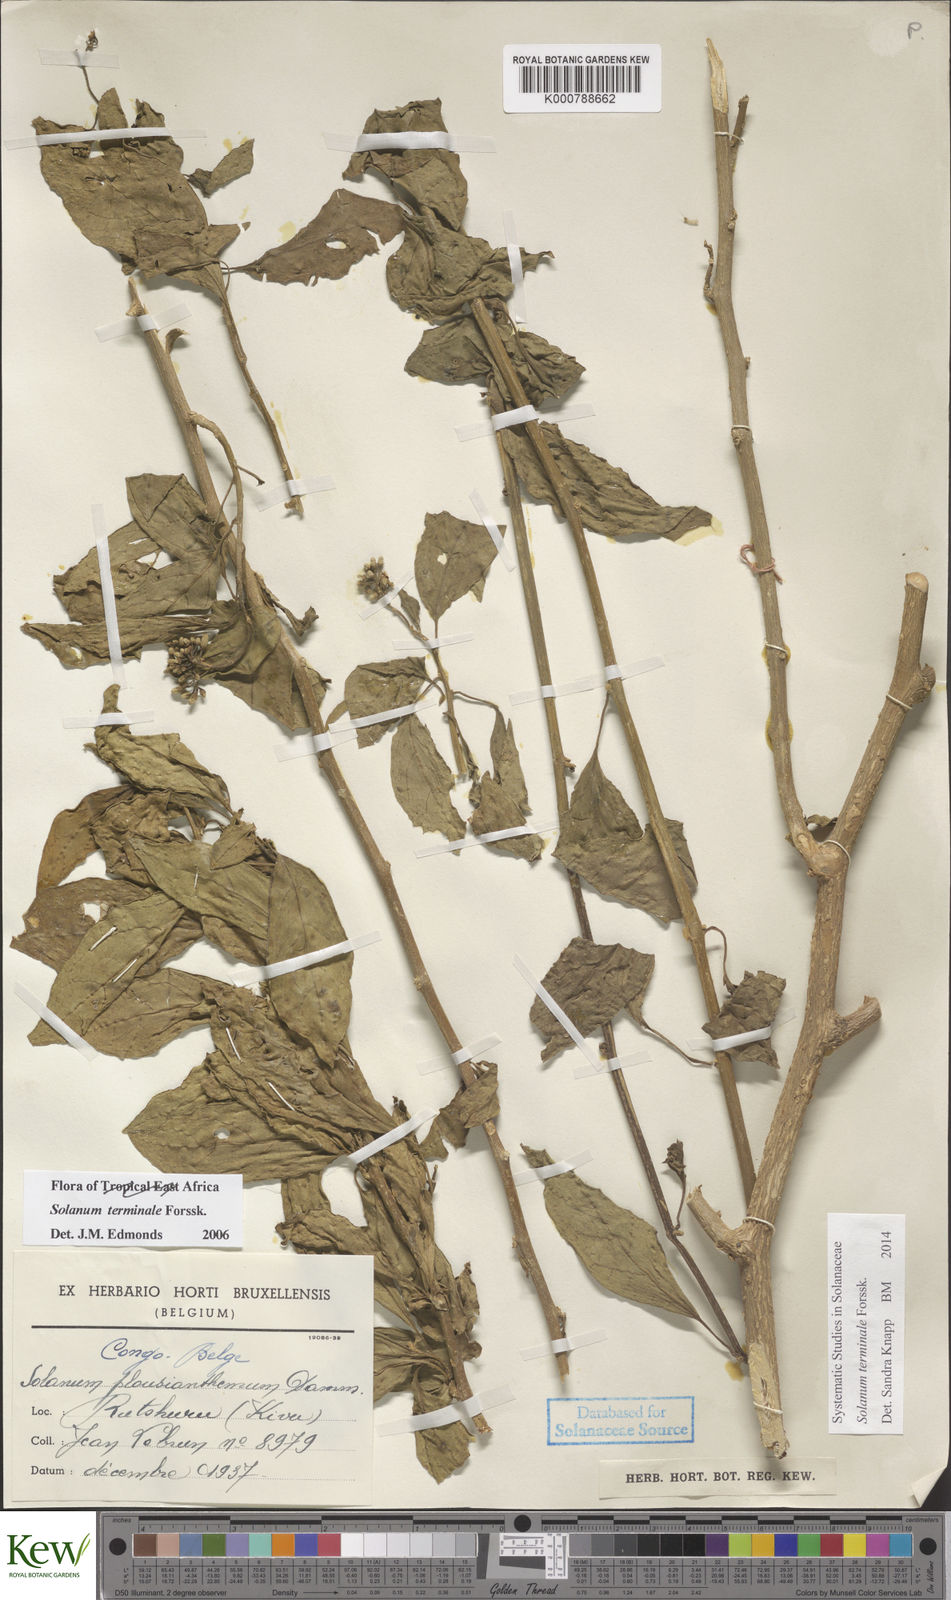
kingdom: Plantae
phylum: Tracheophyta
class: Magnoliopsida
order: Solanales
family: Solanaceae
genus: Solanum
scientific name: Solanum terminale
